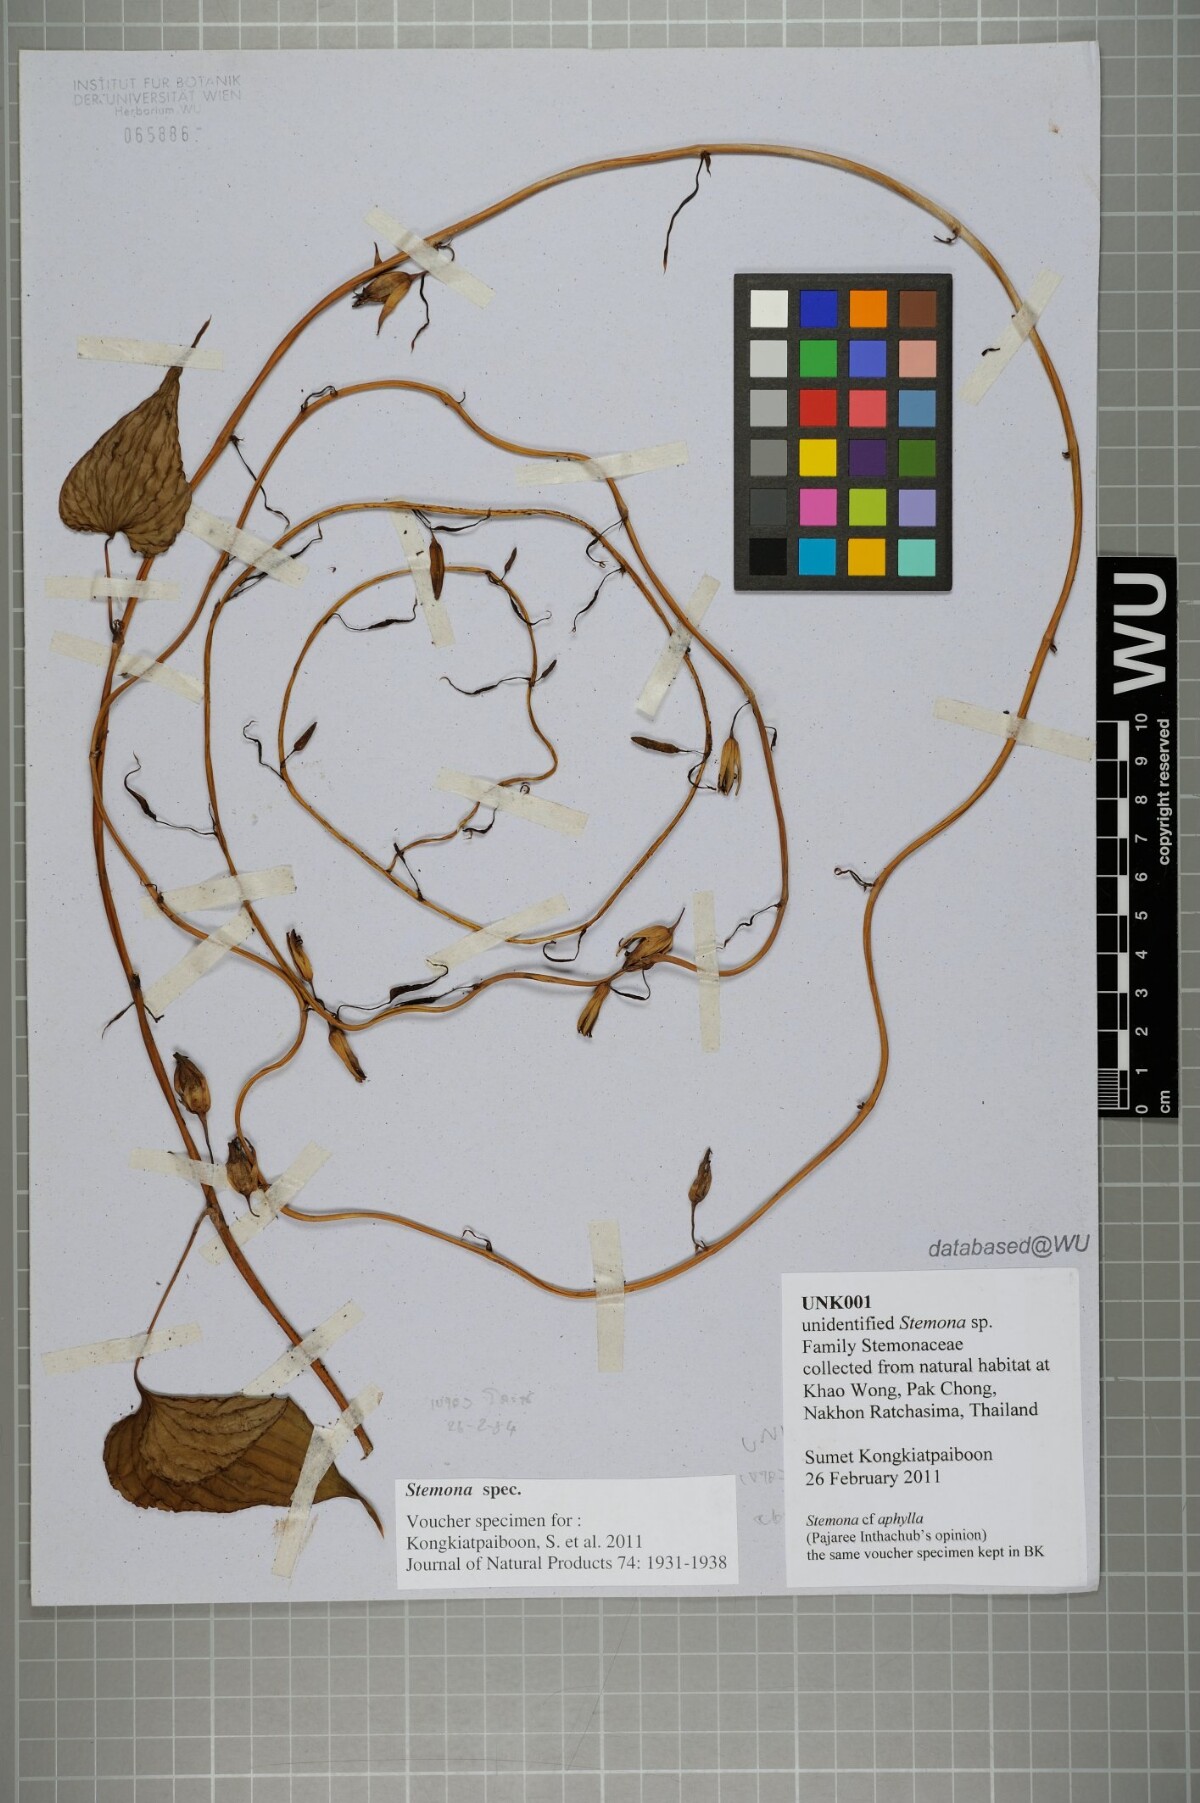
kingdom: Plantae
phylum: Tracheophyta
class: Liliopsida
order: Pandanales
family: Stemonaceae
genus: Stemona
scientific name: Stemona
